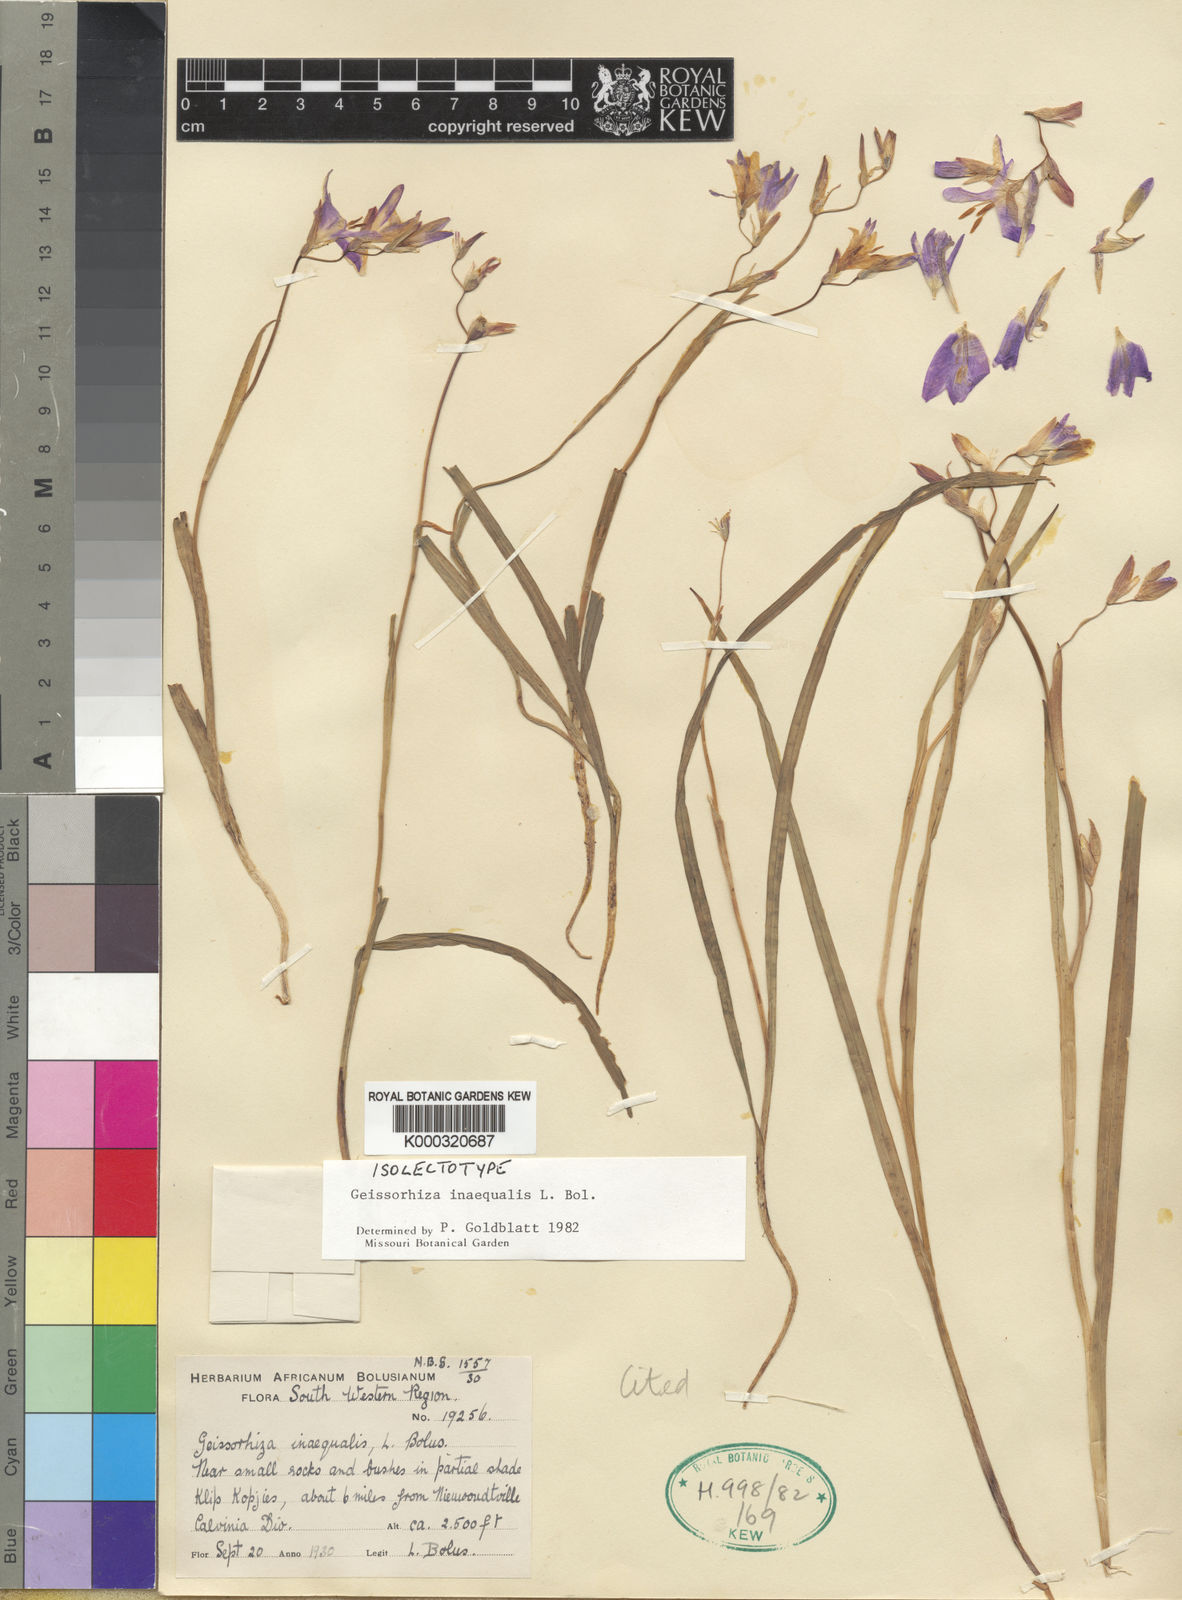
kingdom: Plantae
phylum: Tracheophyta
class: Liliopsida
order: Asparagales
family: Iridaceae
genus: Geissorhiza
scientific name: Geissorhiza inaequalis
